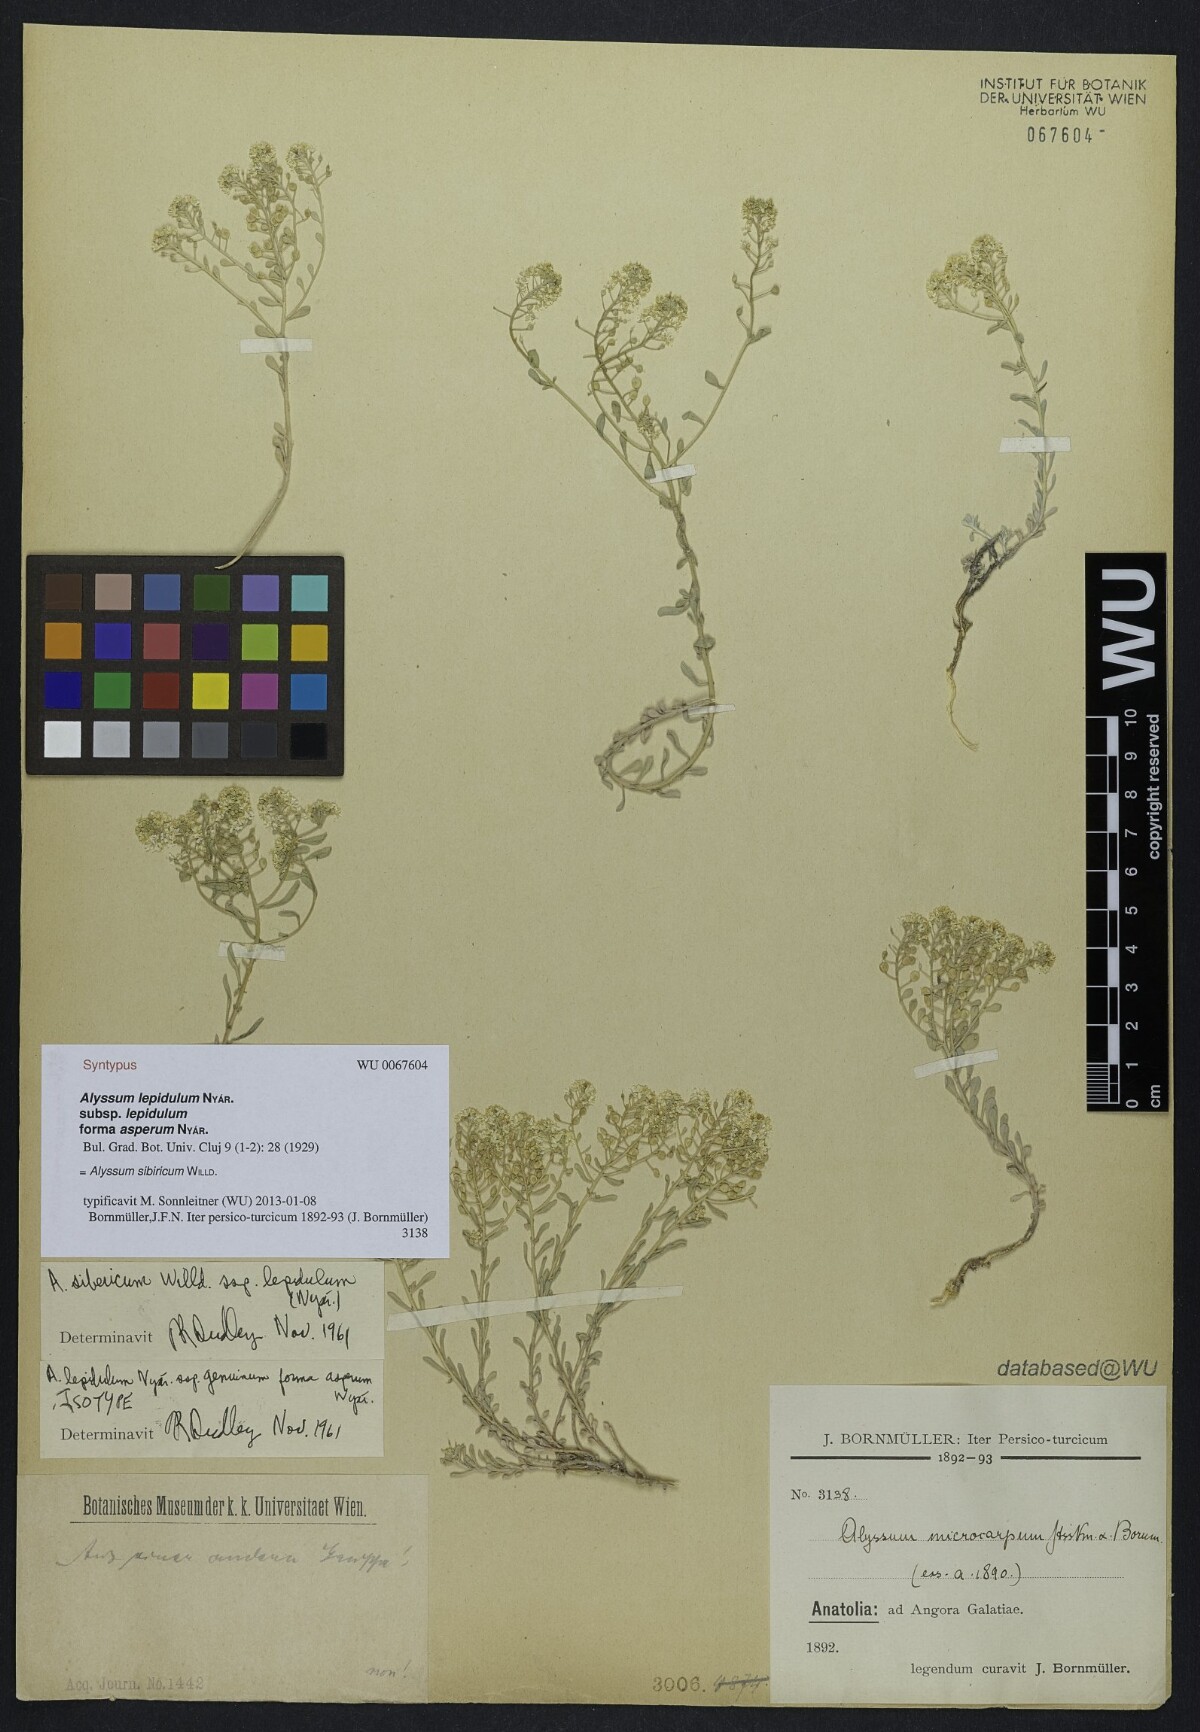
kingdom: Plantae
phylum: Tracheophyta
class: Magnoliopsida
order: Brassicales
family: Brassicaceae
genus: Odontarrhena
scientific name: Odontarrhena sibirica
